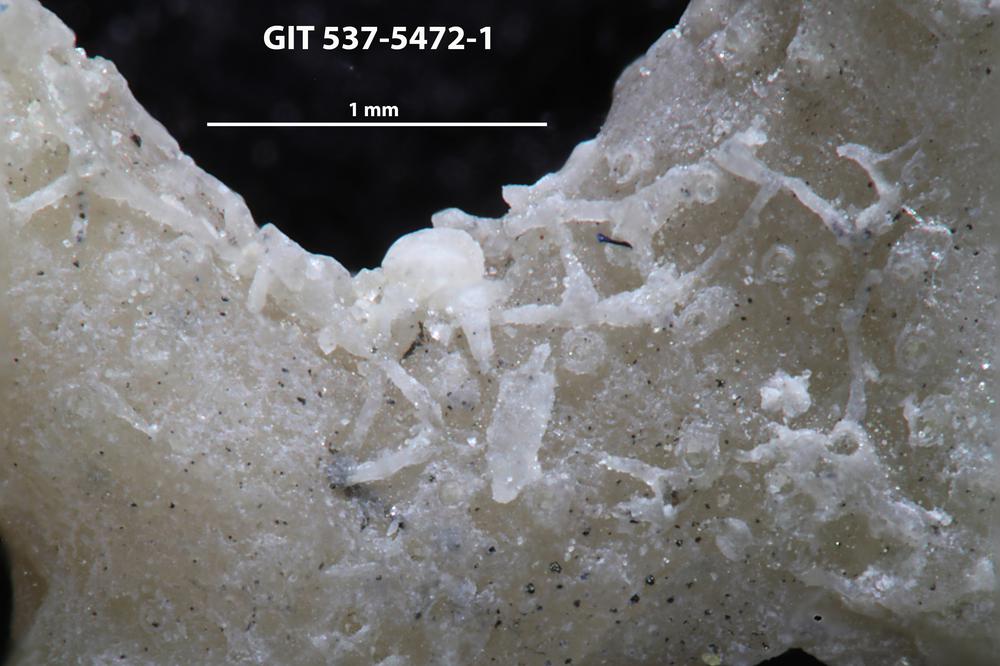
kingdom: Animalia
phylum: Bryozoa
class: Stenolaemata
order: Cyclostomatida
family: Corynotrypidae
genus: Corynotrypa
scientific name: Corynotrypa
